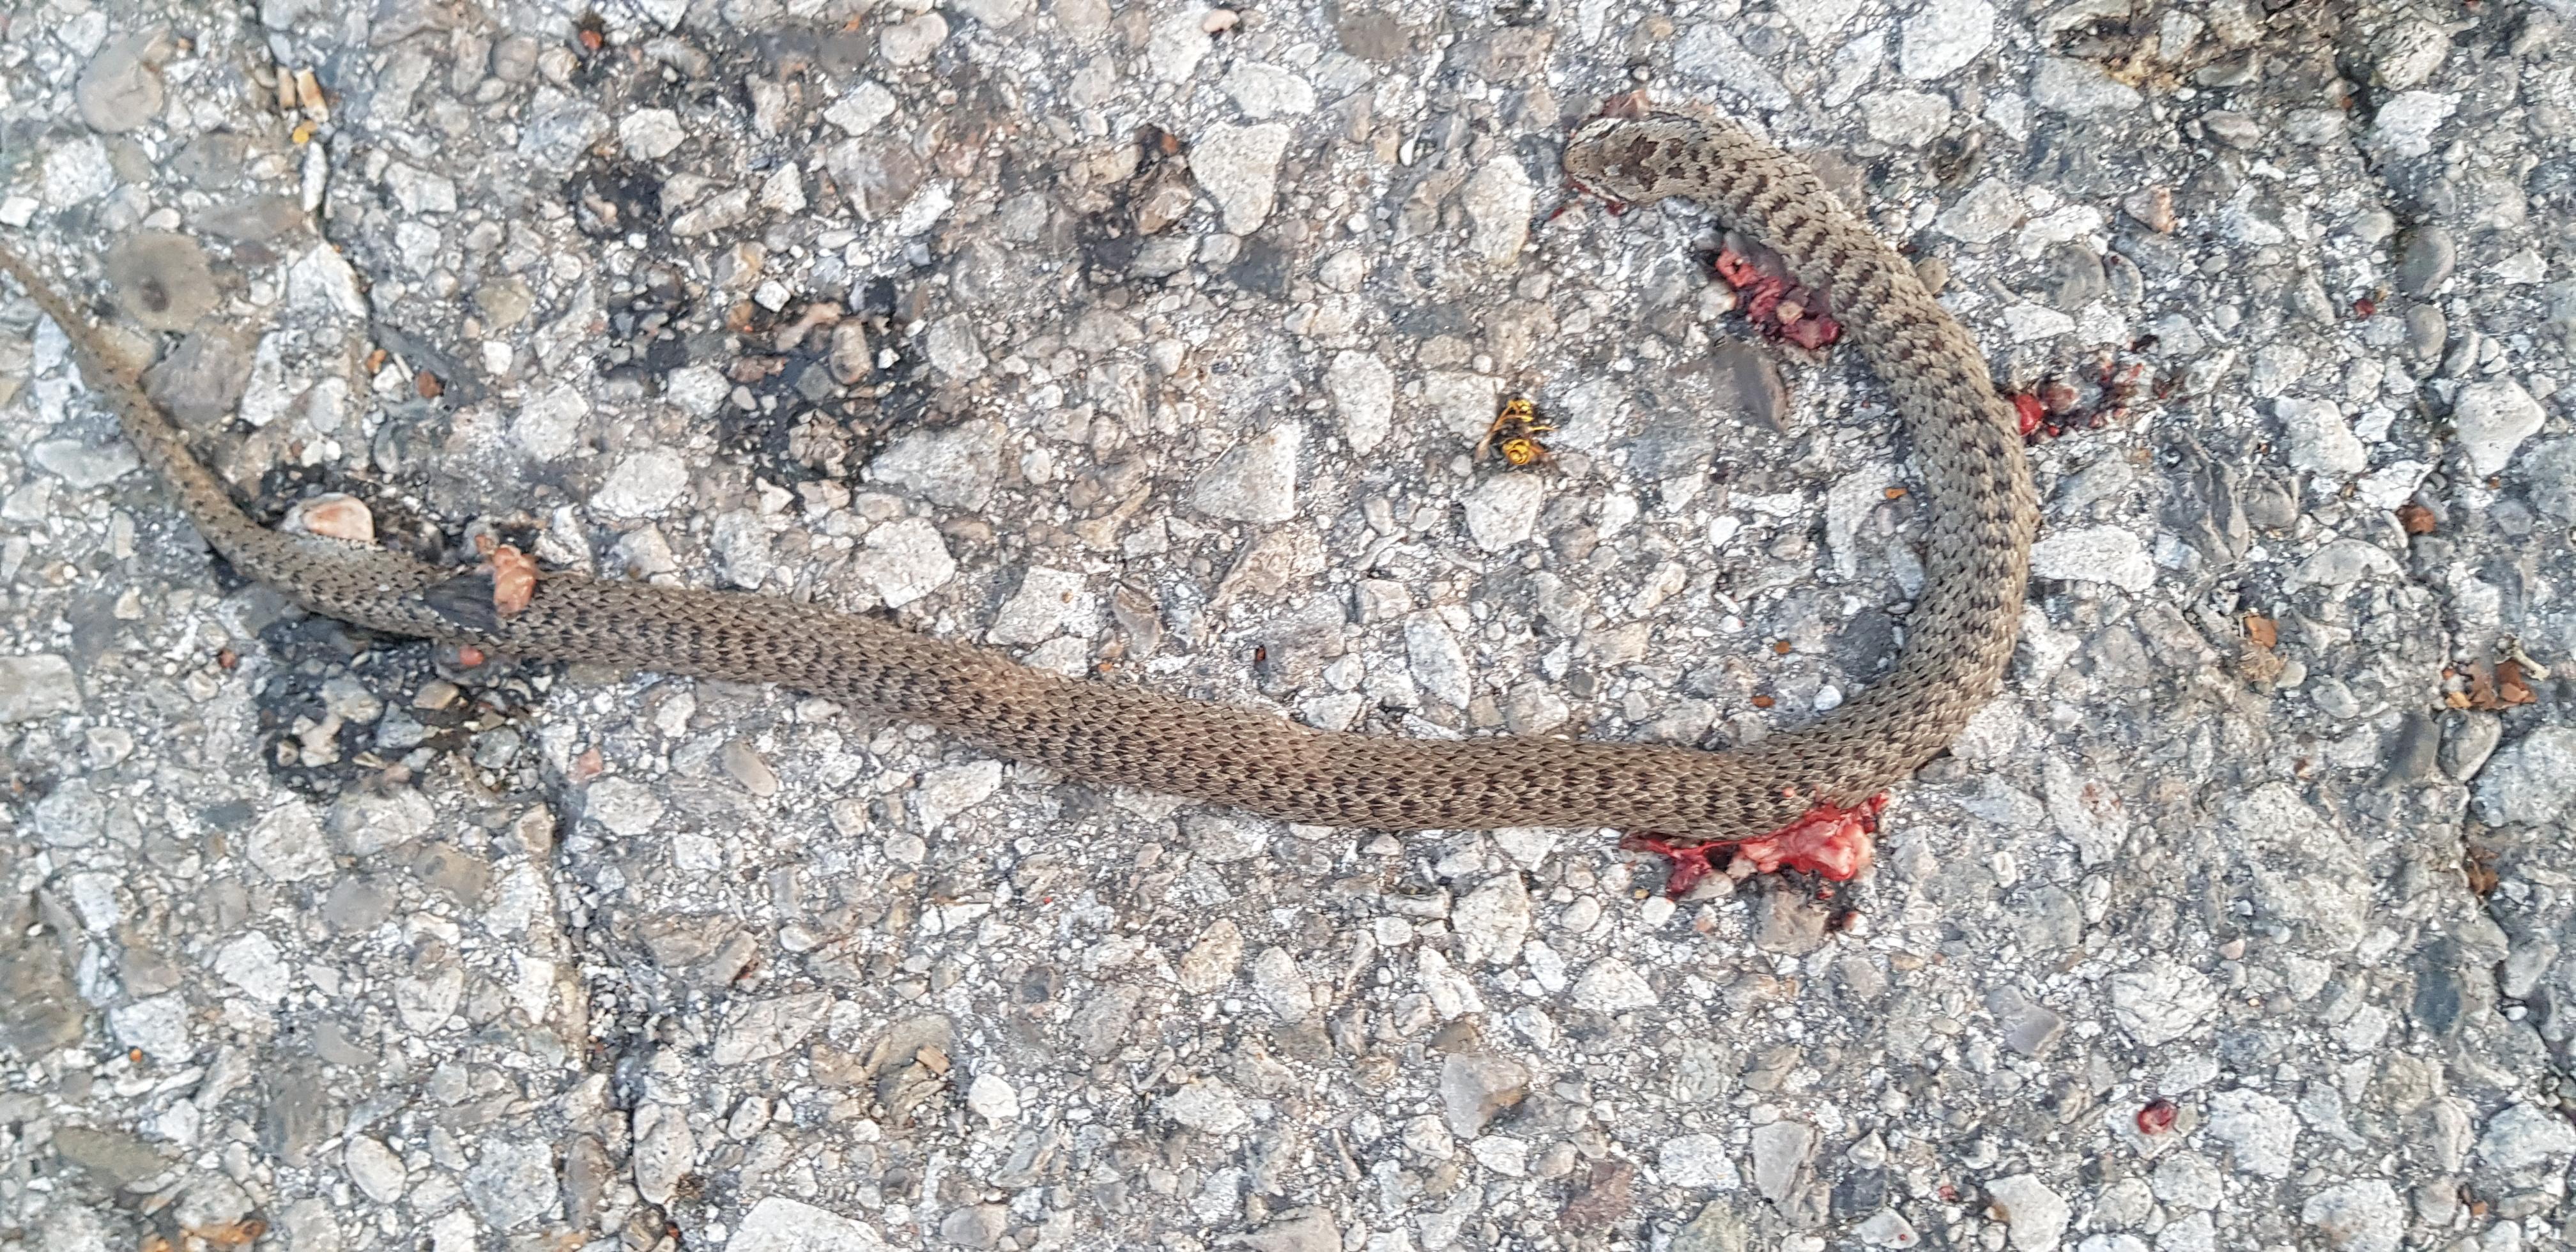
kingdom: Animalia
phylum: Chordata
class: Squamata
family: Colubridae
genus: Coronella
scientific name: Coronella austriaca
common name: Smooth snake
